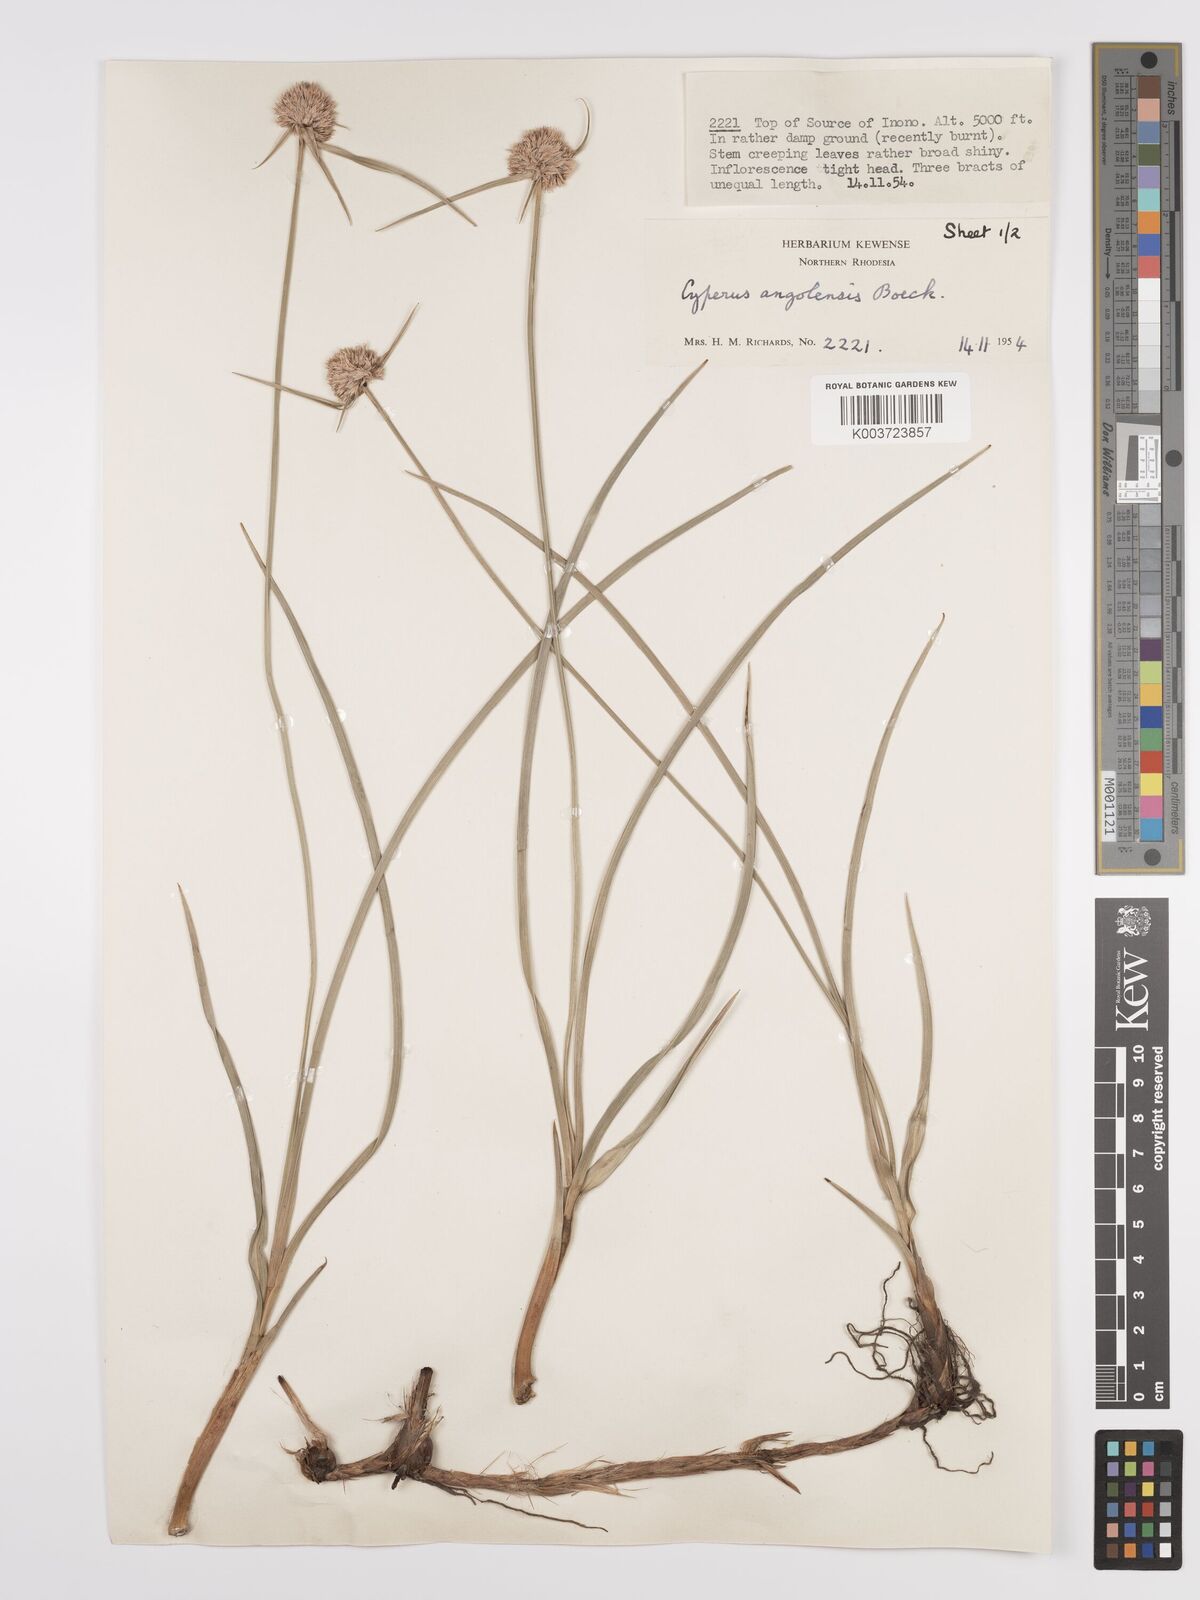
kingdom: Plantae
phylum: Tracheophyta
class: Liliopsida
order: Poales
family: Cyperaceae
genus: Cyperus
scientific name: Cyperus angolensis
